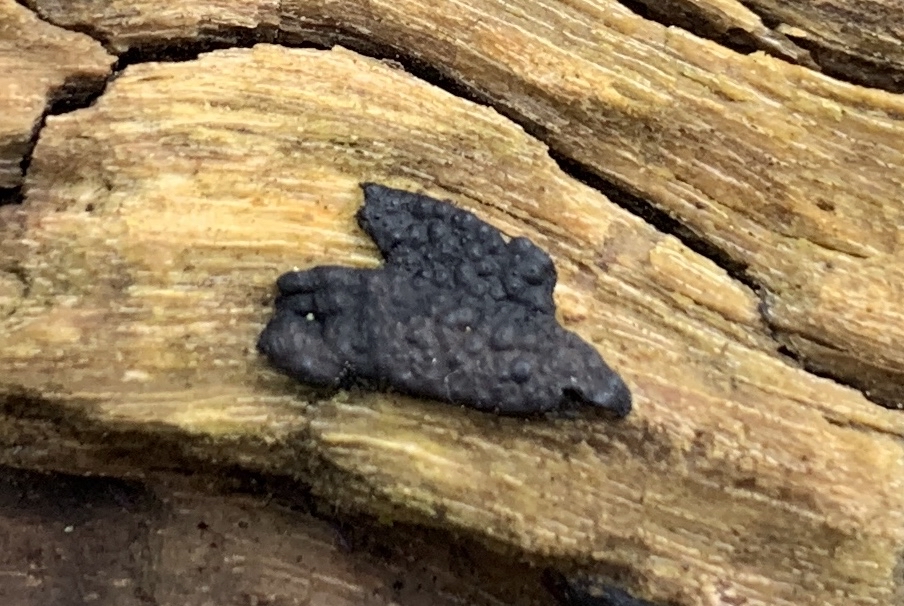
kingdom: Fungi
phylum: Ascomycota
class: Sordariomycetes
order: Xylariales
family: Xylariaceae
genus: Nemania
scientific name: Nemania
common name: kuldyne
